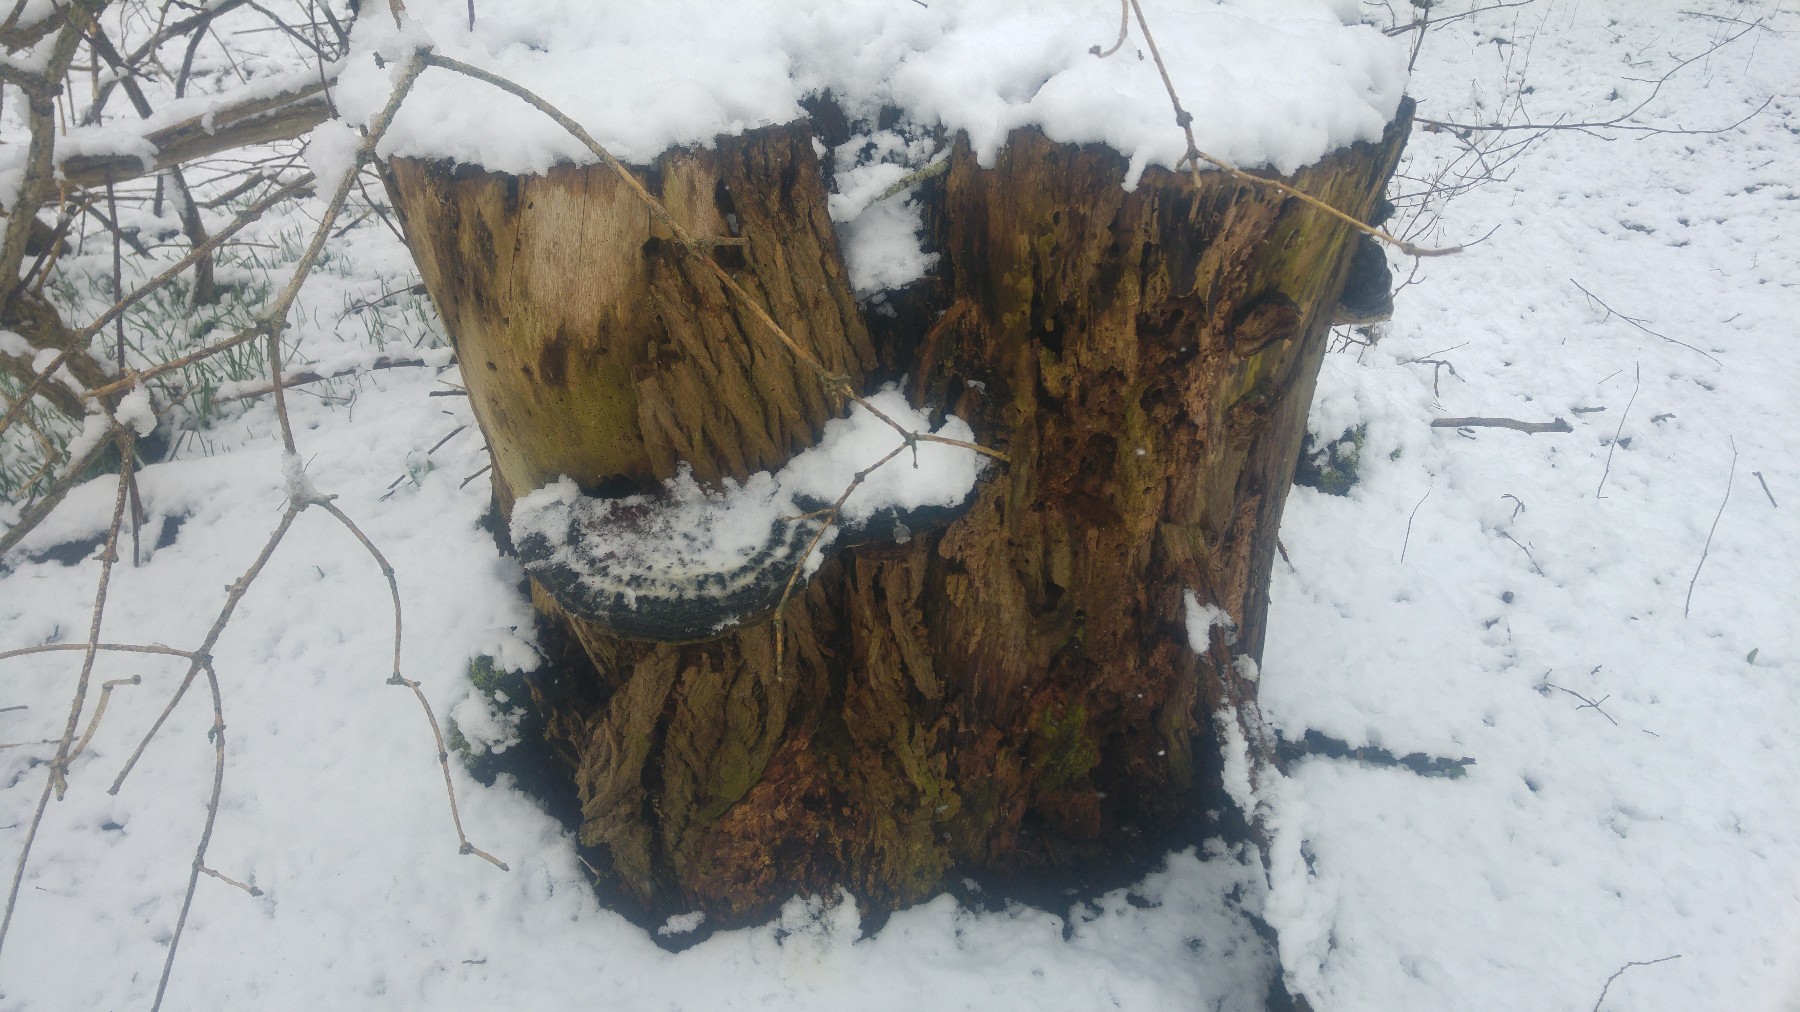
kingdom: Fungi
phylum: Basidiomycota
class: Agaricomycetes
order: Polyporales
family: Polyporaceae
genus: Ganoderma
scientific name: Ganoderma
